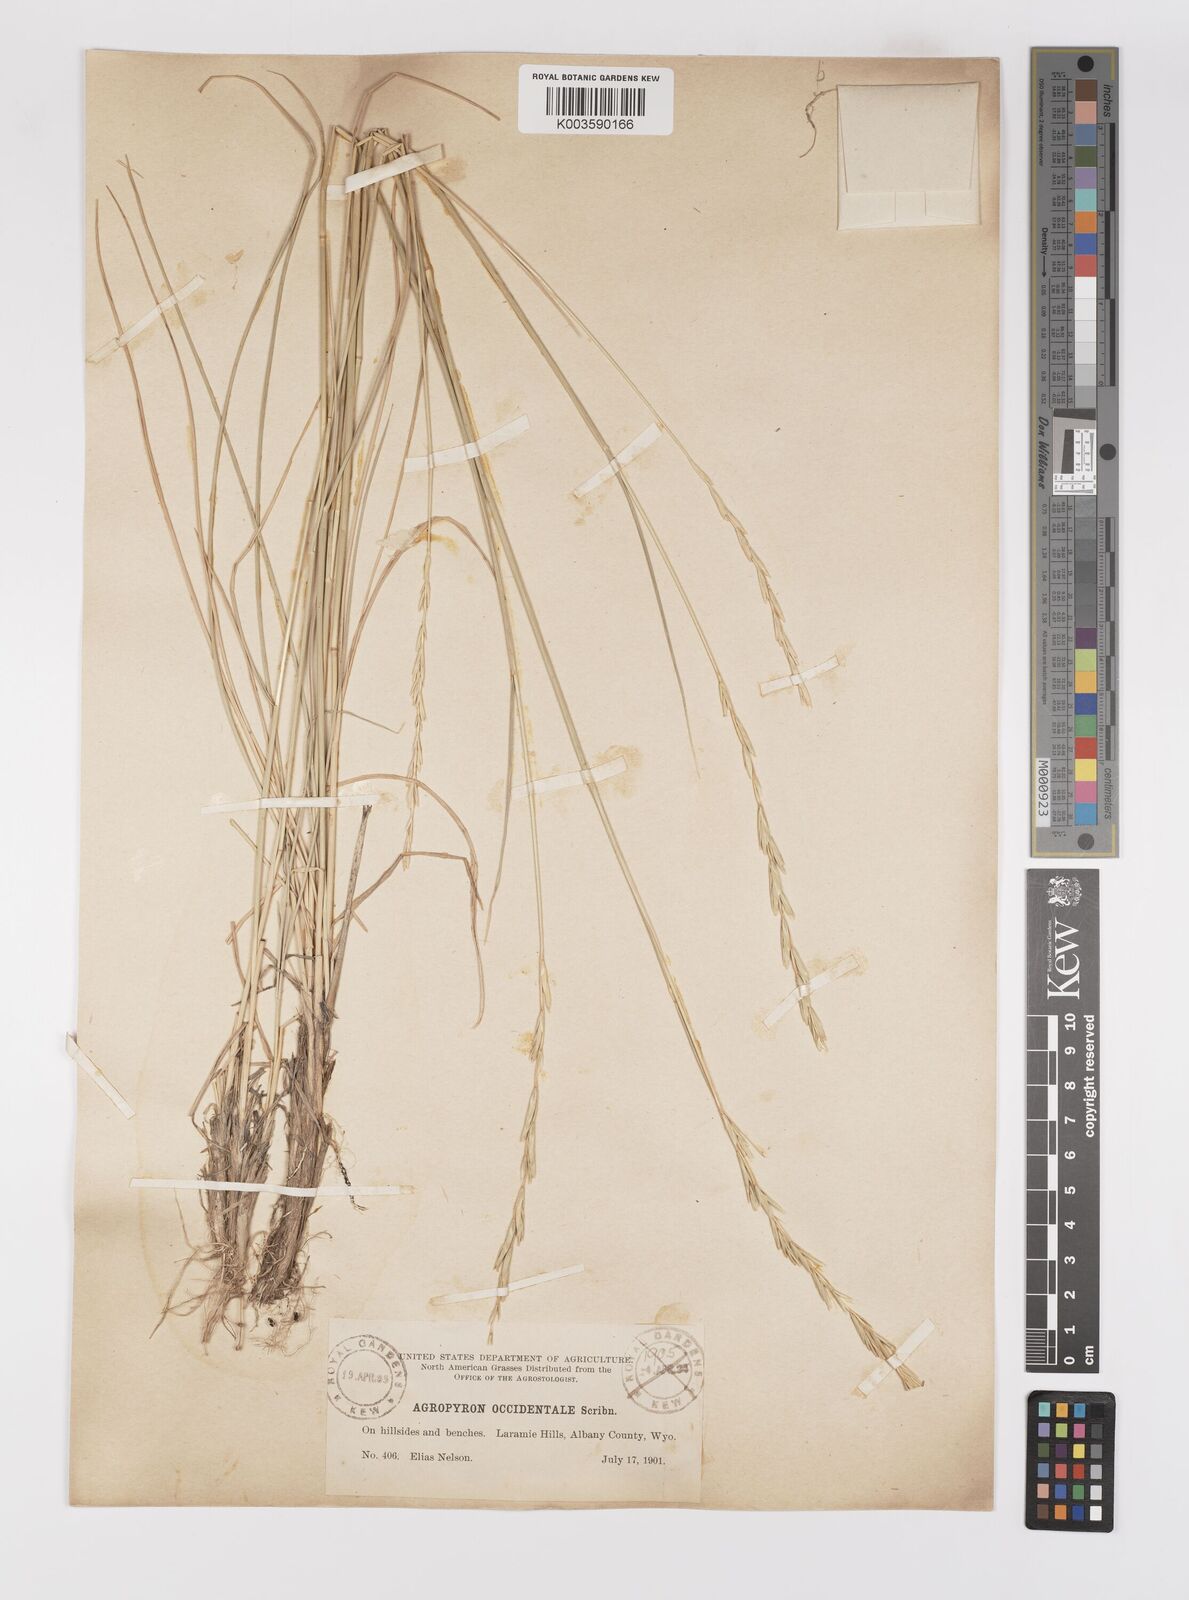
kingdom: Plantae
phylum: Tracheophyta
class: Liliopsida
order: Poales
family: Poaceae
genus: Elymus
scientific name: Elymus smithii
